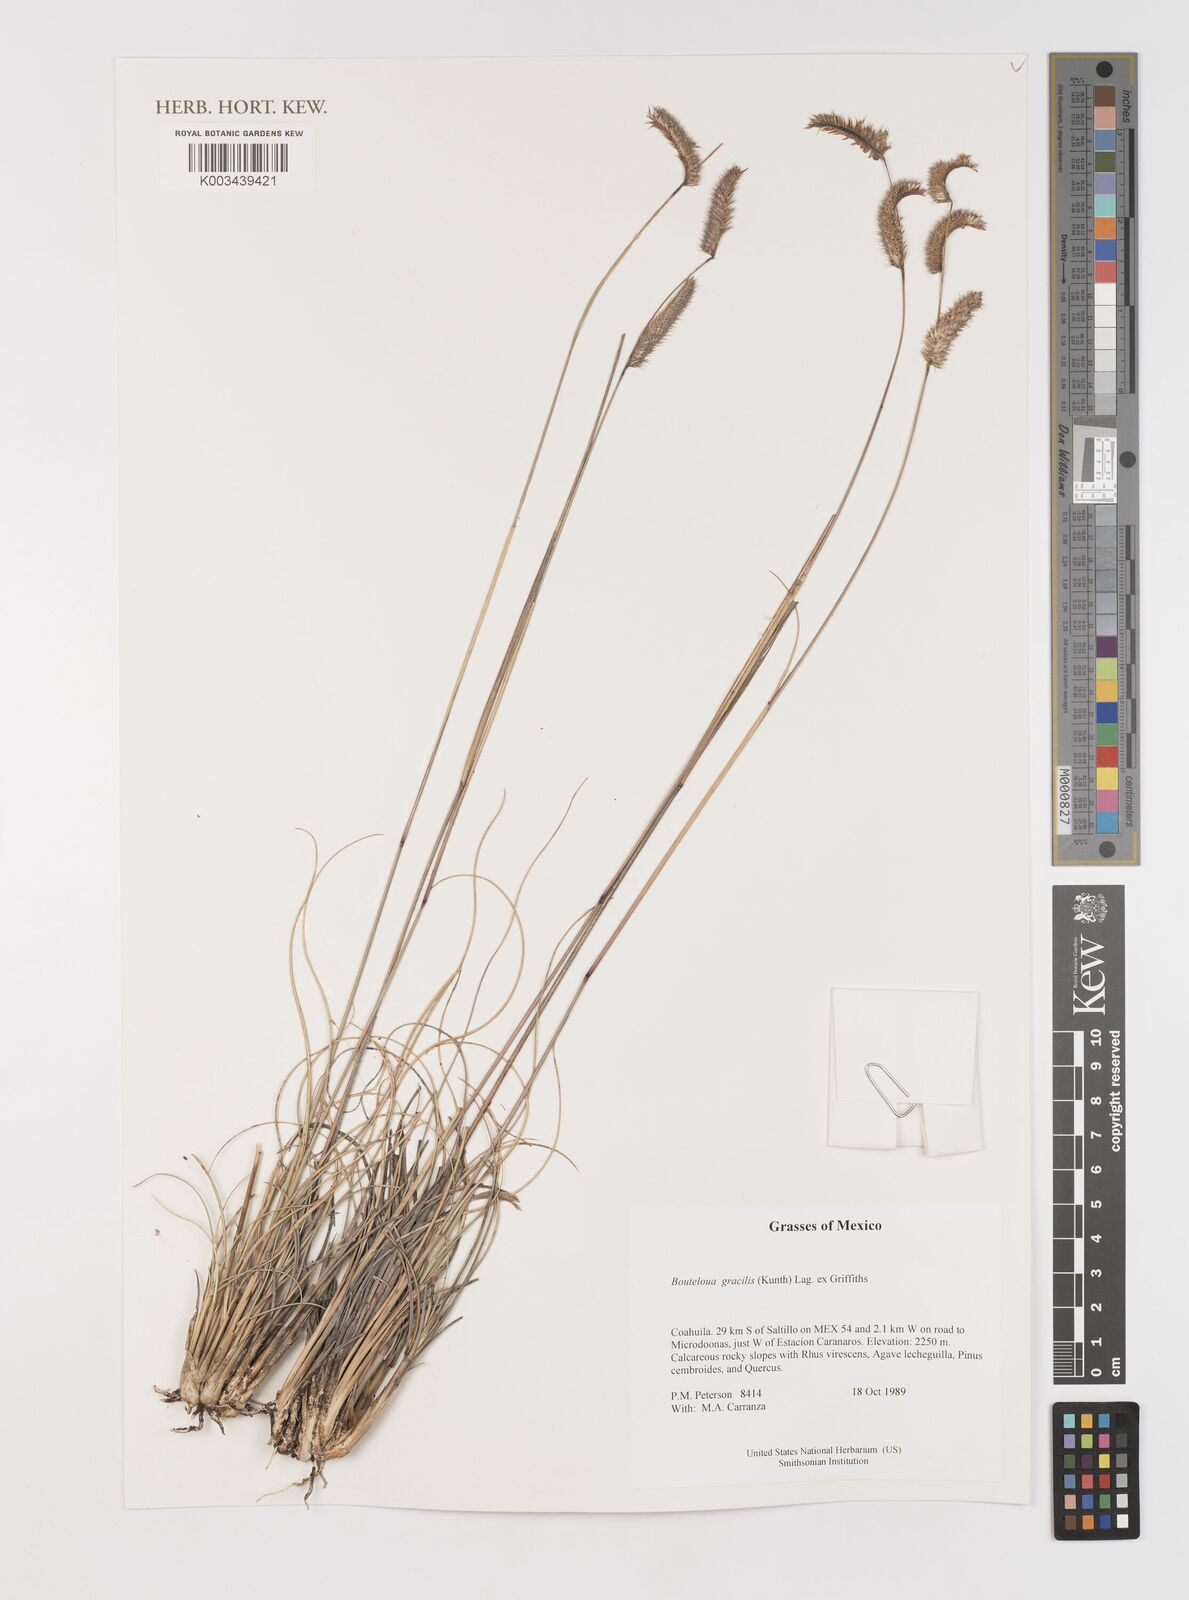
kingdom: Plantae
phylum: Tracheophyta
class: Liliopsida
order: Poales
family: Poaceae
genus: Bouteloua
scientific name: Bouteloua aristidoides
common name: Needle grama
